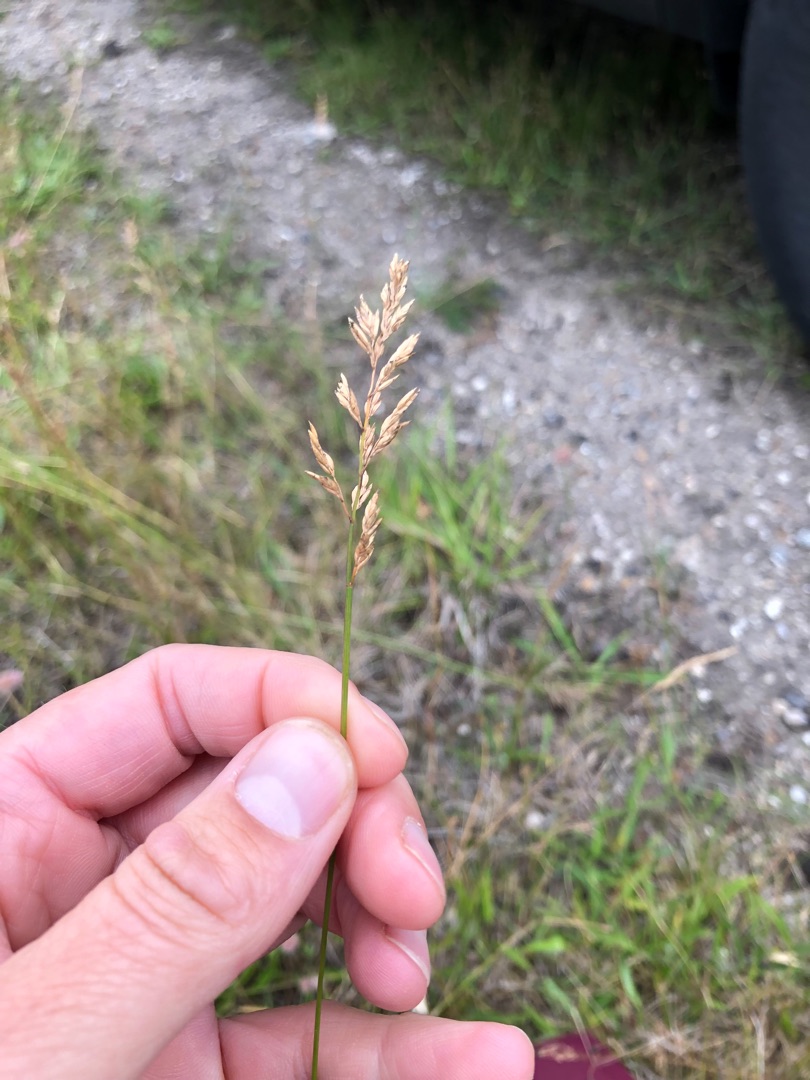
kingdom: Plantae
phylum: Tracheophyta
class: Liliopsida
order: Poales
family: Poaceae
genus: Poa
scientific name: Poa compressa
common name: Fladstrået rapgræs
